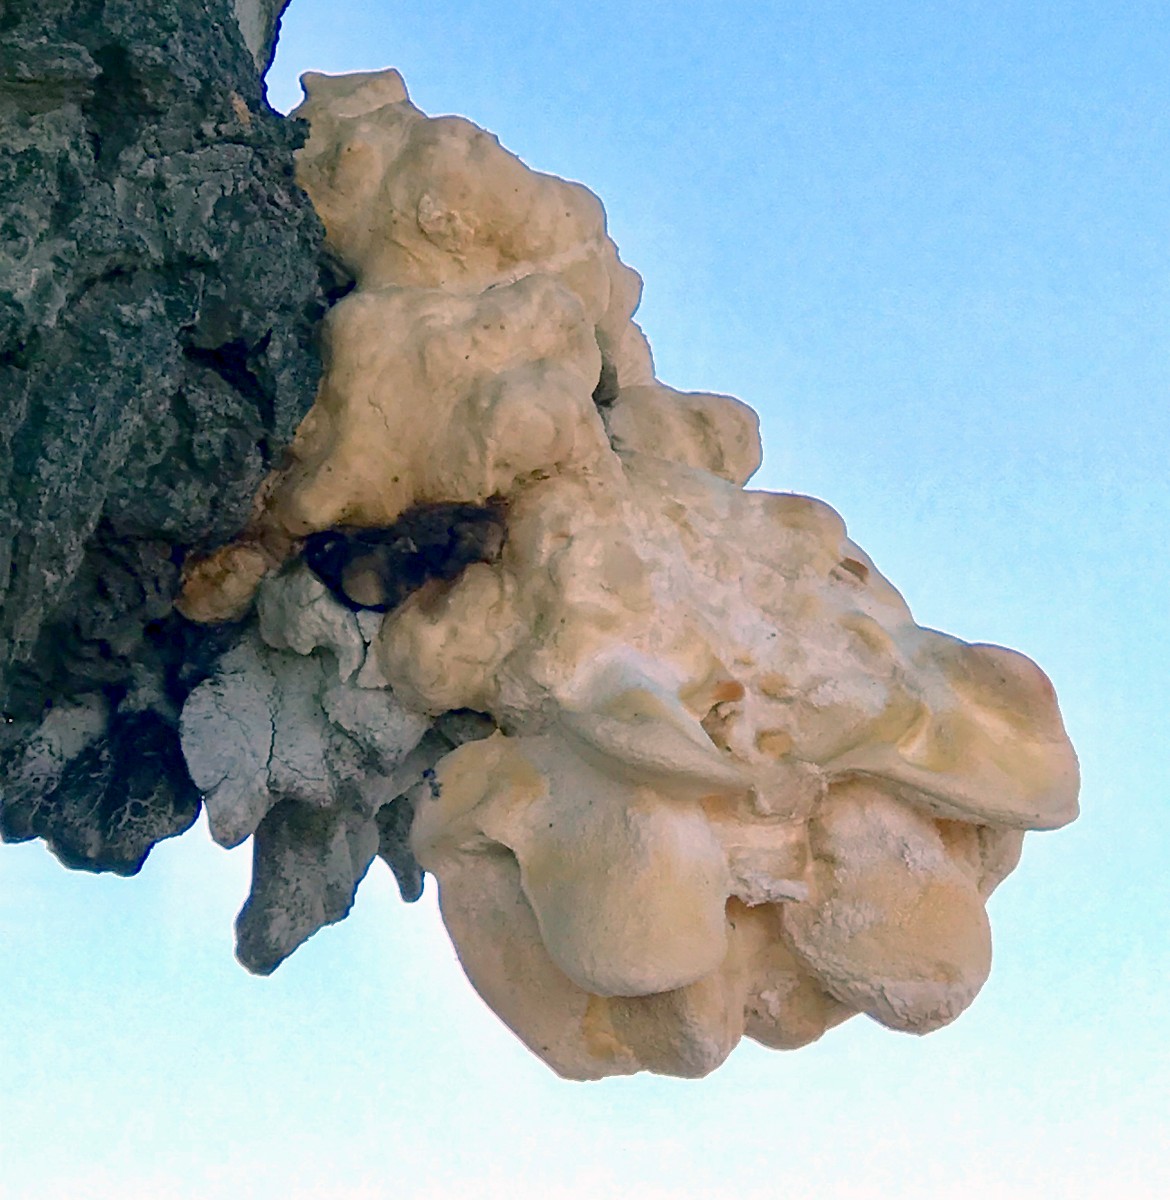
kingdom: Fungi
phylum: Basidiomycota
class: Agaricomycetes
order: Polyporales
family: Laetiporaceae
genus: Laetiporus
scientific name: Laetiporus sulphureus
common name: svovlporesvamp
